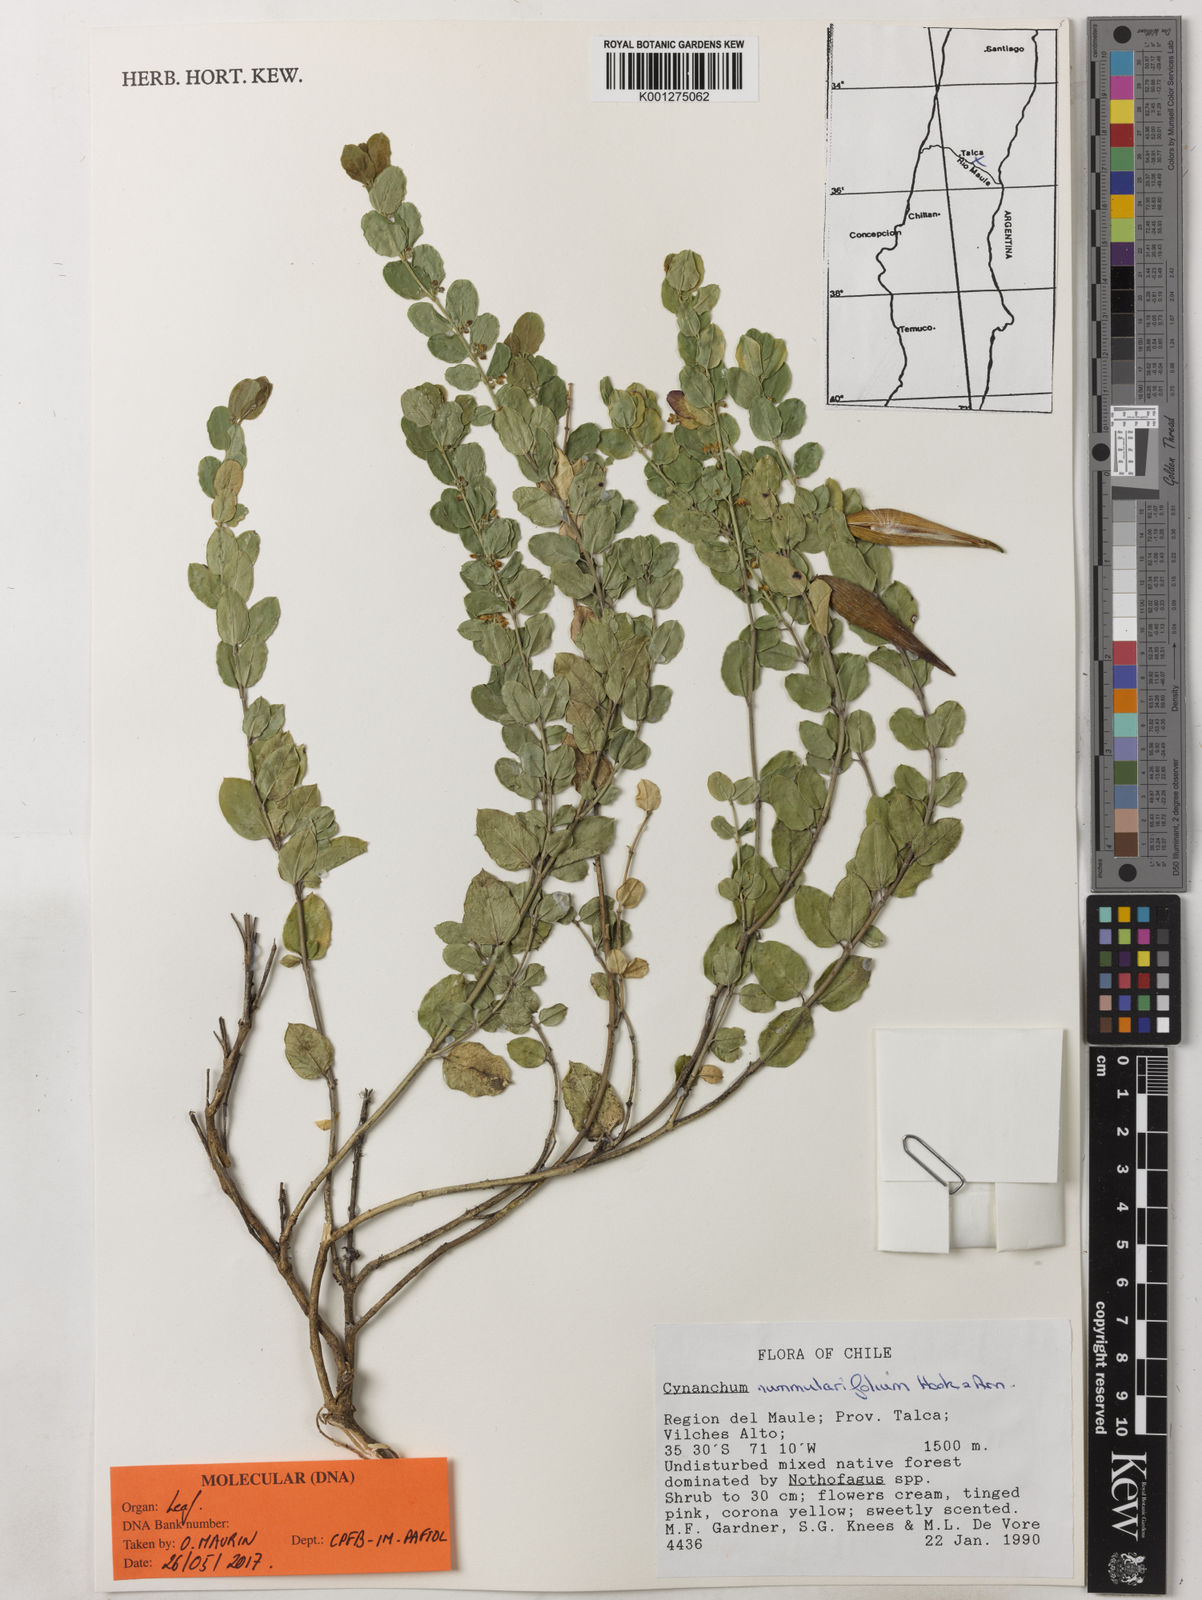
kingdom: Plantae
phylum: Tracheophyta
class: Magnoliopsida
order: Gentianales
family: Apocynaceae
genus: Diplolepis
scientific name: Diplolepis nummulariifolia
